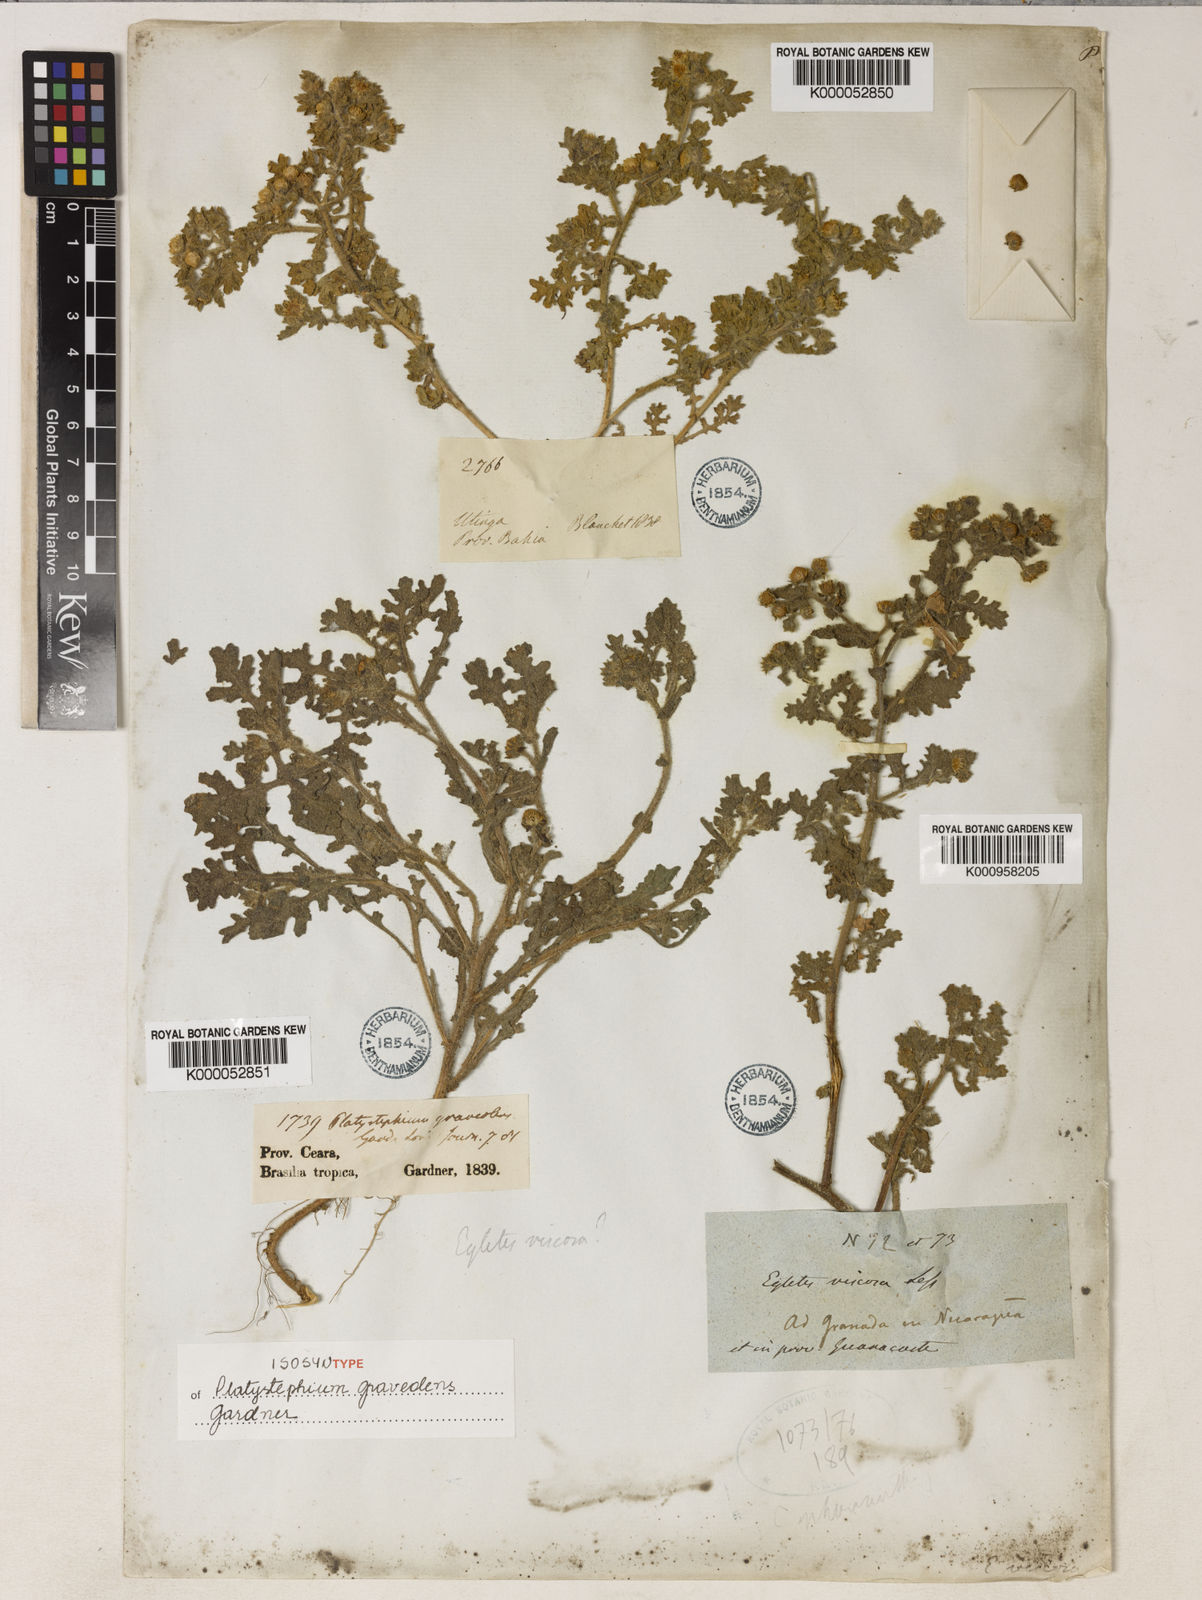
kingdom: Plantae
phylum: Tracheophyta
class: Magnoliopsida
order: Asterales
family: Asteraceae
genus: Egletes
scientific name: Egletes viscosa
